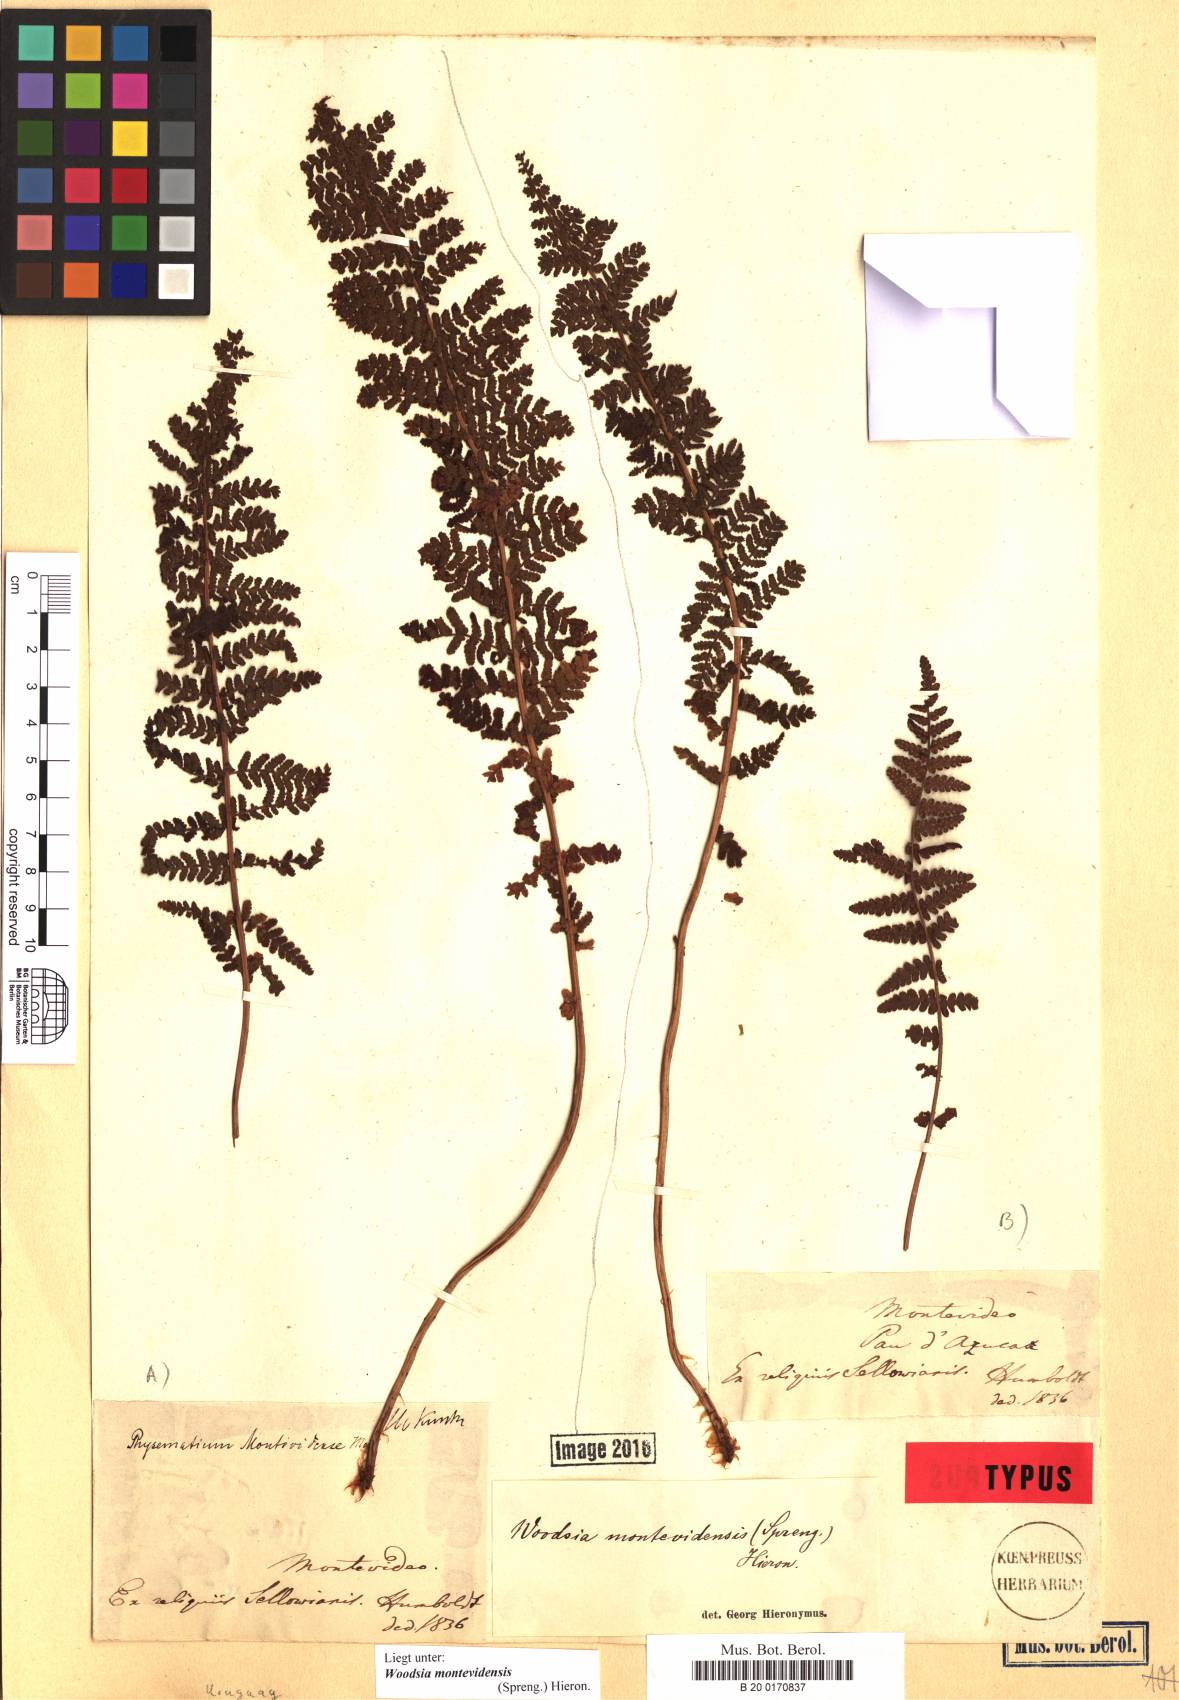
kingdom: Plantae
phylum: Tracheophyta
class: Polypodiopsida
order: Polypodiales
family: Woodsiaceae
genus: Physematium
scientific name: Physematium montevidense
